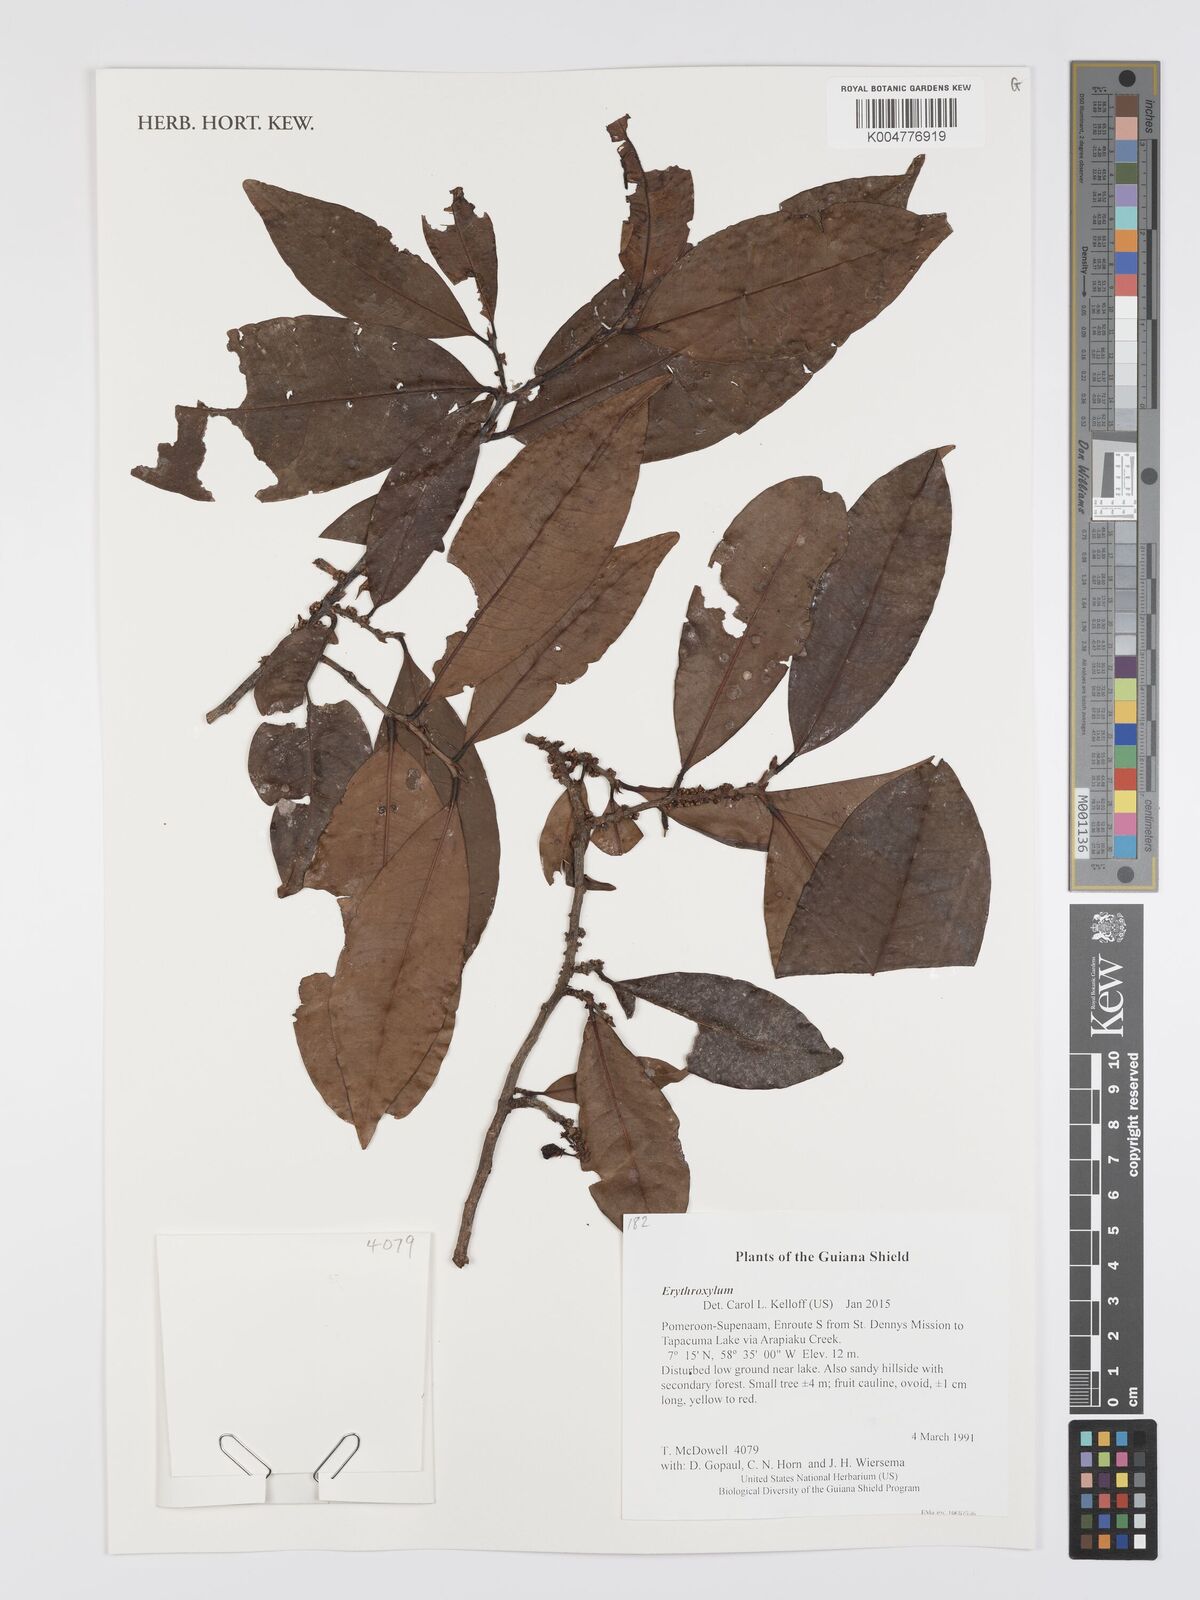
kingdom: Plantae
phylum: Tracheophyta
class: Magnoliopsida
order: Malpighiales
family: Erythroxylaceae
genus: Erythroxylum
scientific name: Erythroxylum
